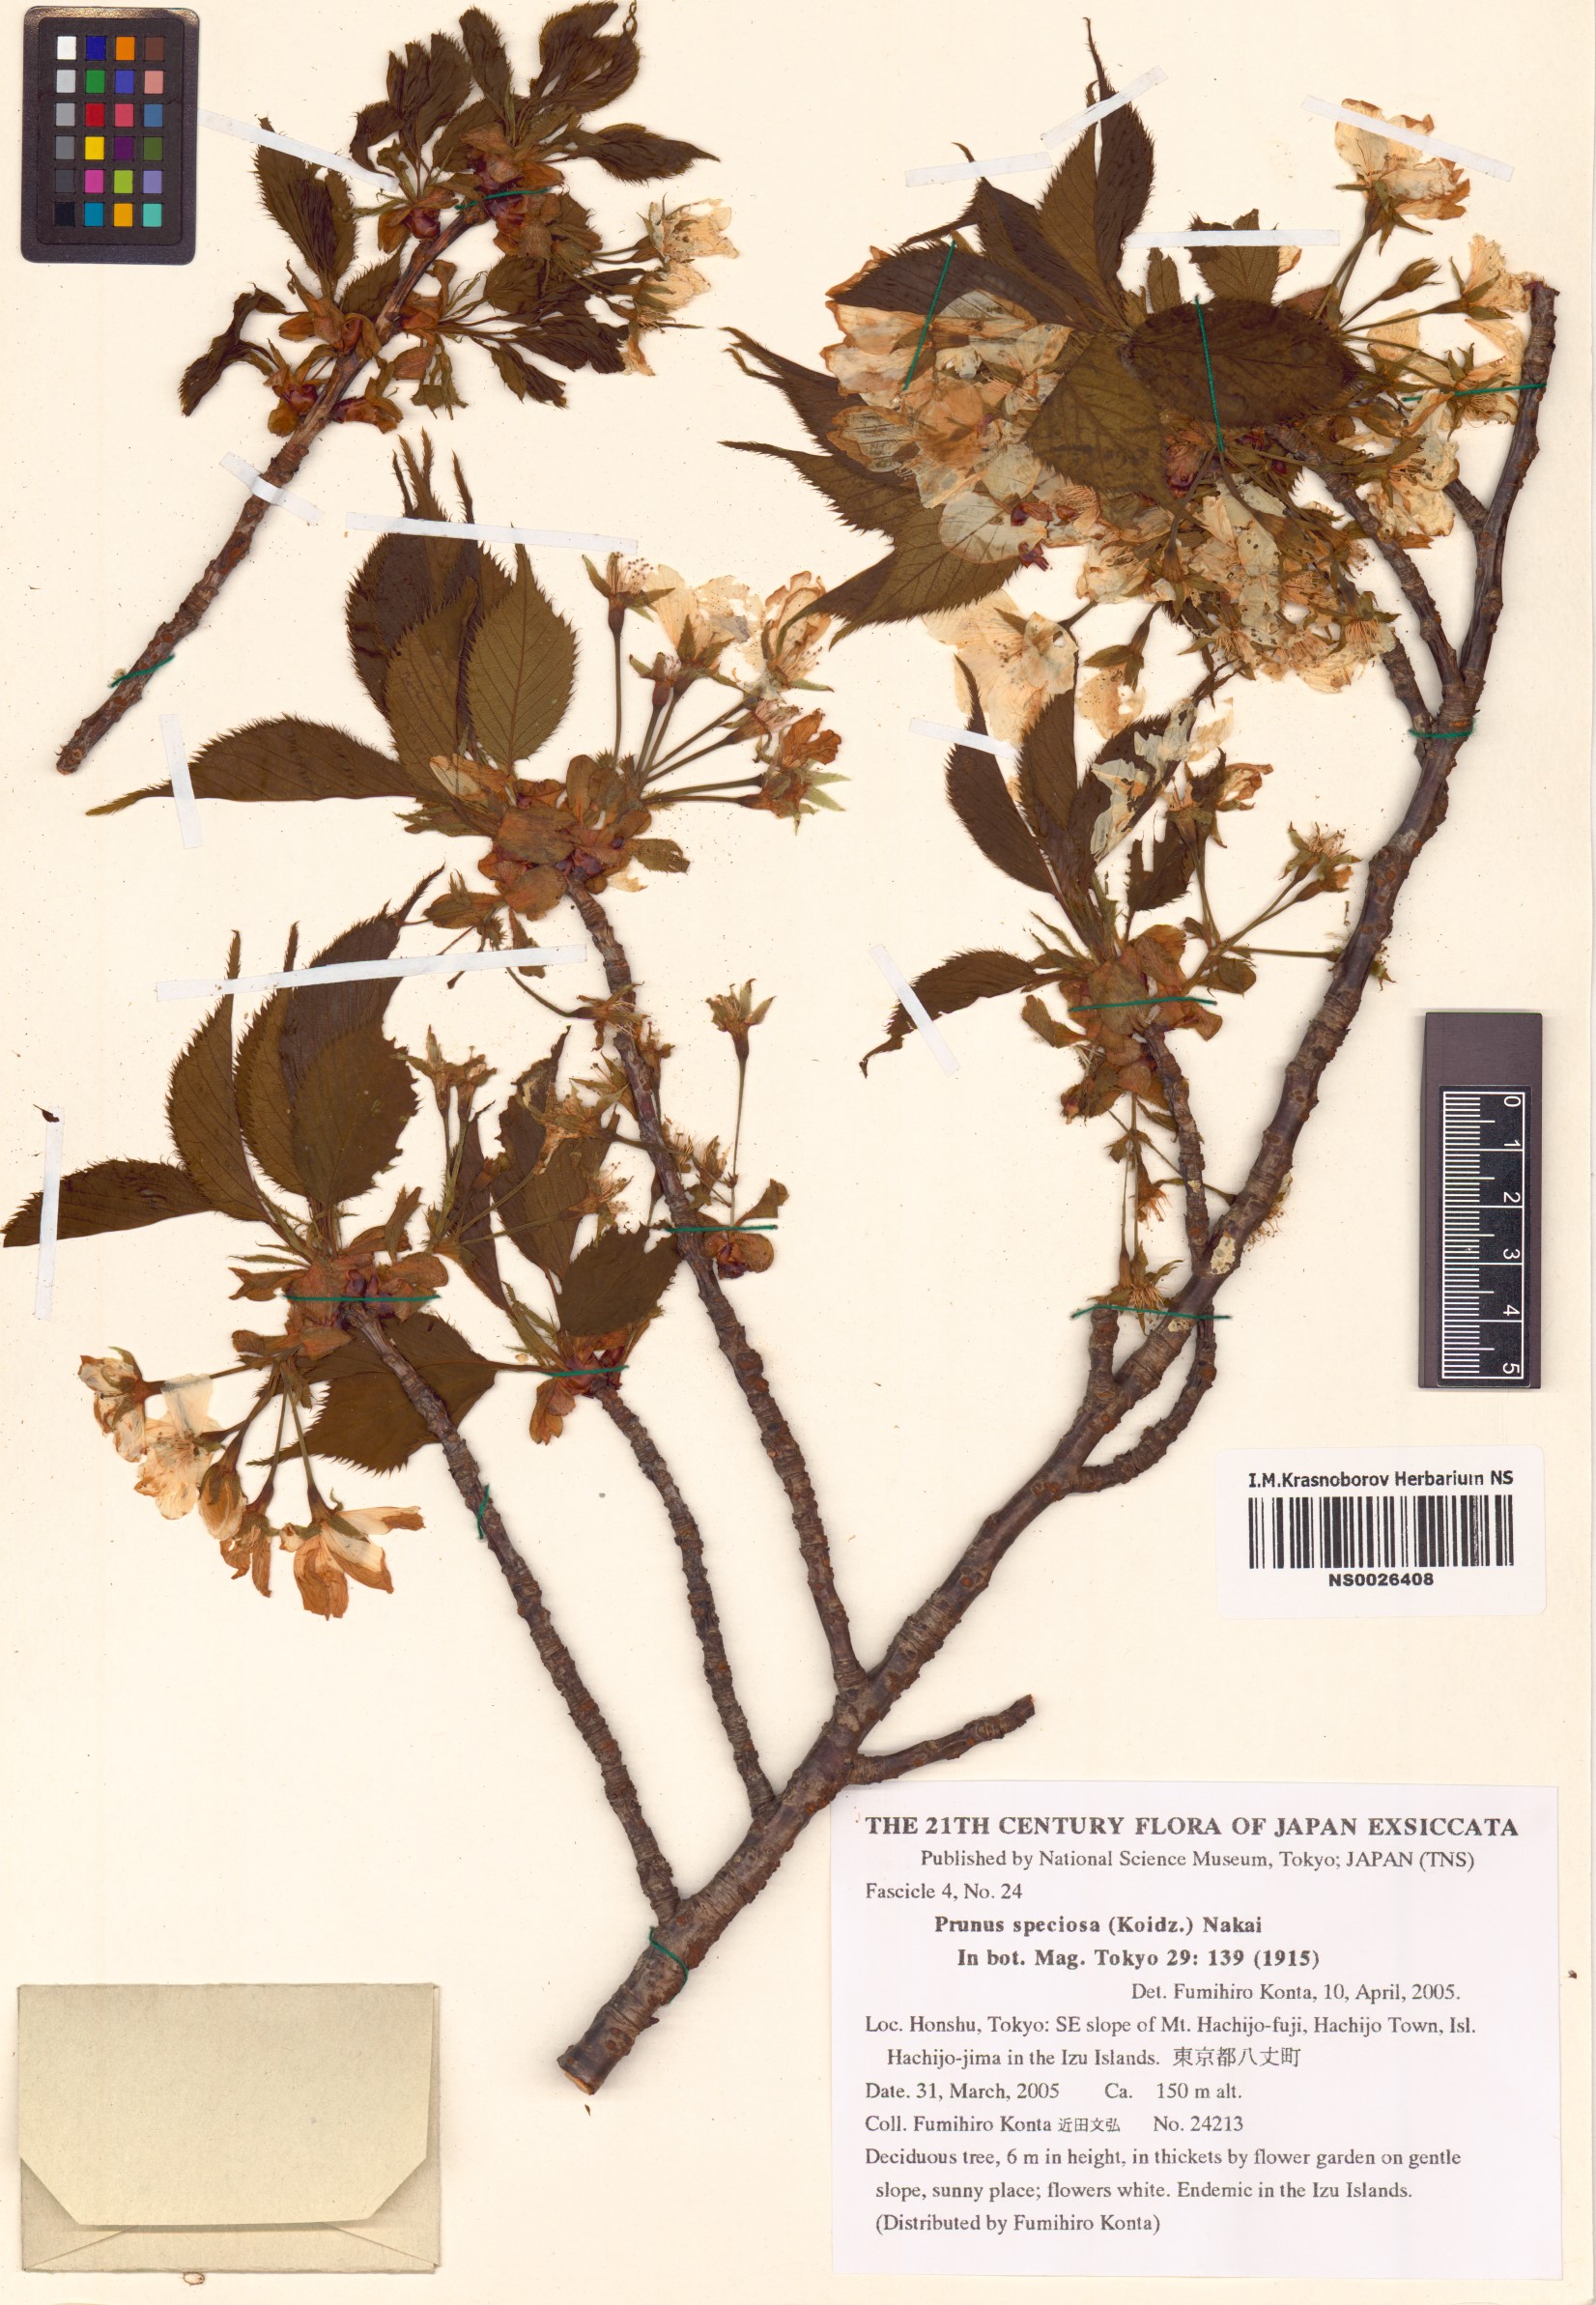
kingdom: Plantae
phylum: Tracheophyta
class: Magnoliopsida
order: Rosales
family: Rosaceae
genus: Prunus
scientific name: Prunus speciosa
